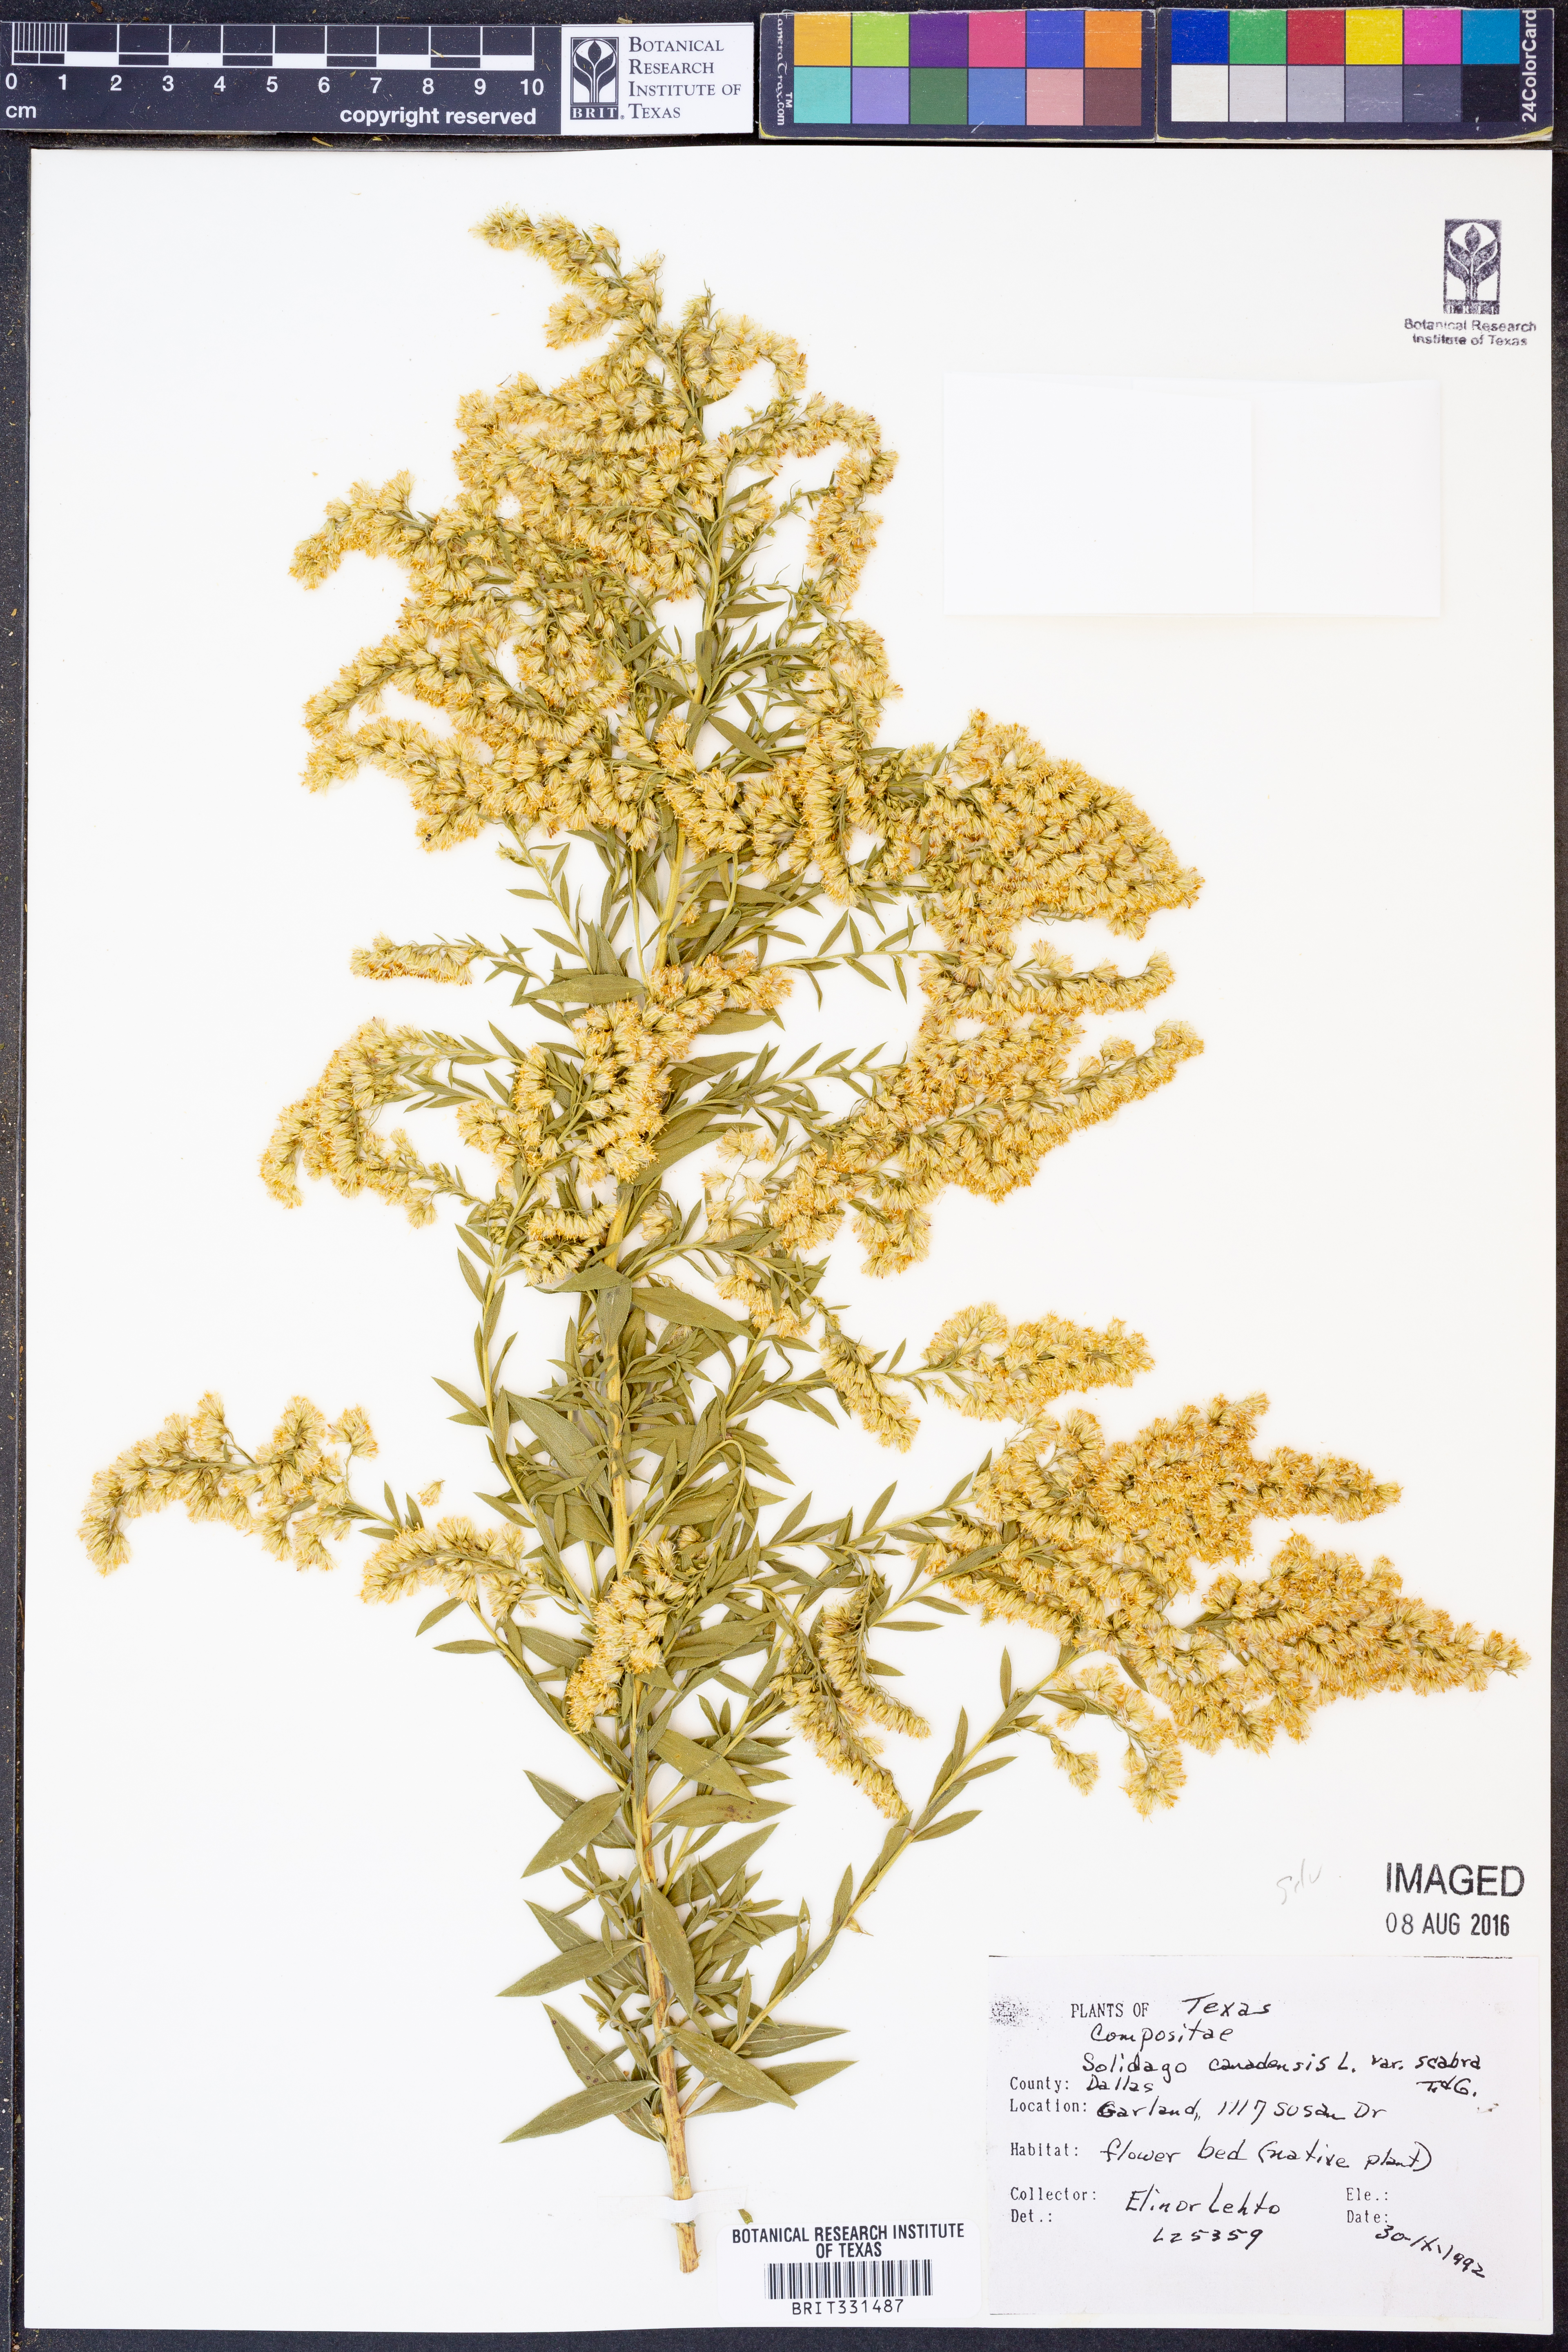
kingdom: Plantae
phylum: Tracheophyta
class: Magnoliopsida
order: Asterales
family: Asteraceae
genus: Solidago
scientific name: Solidago altissima
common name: Late goldenrod
